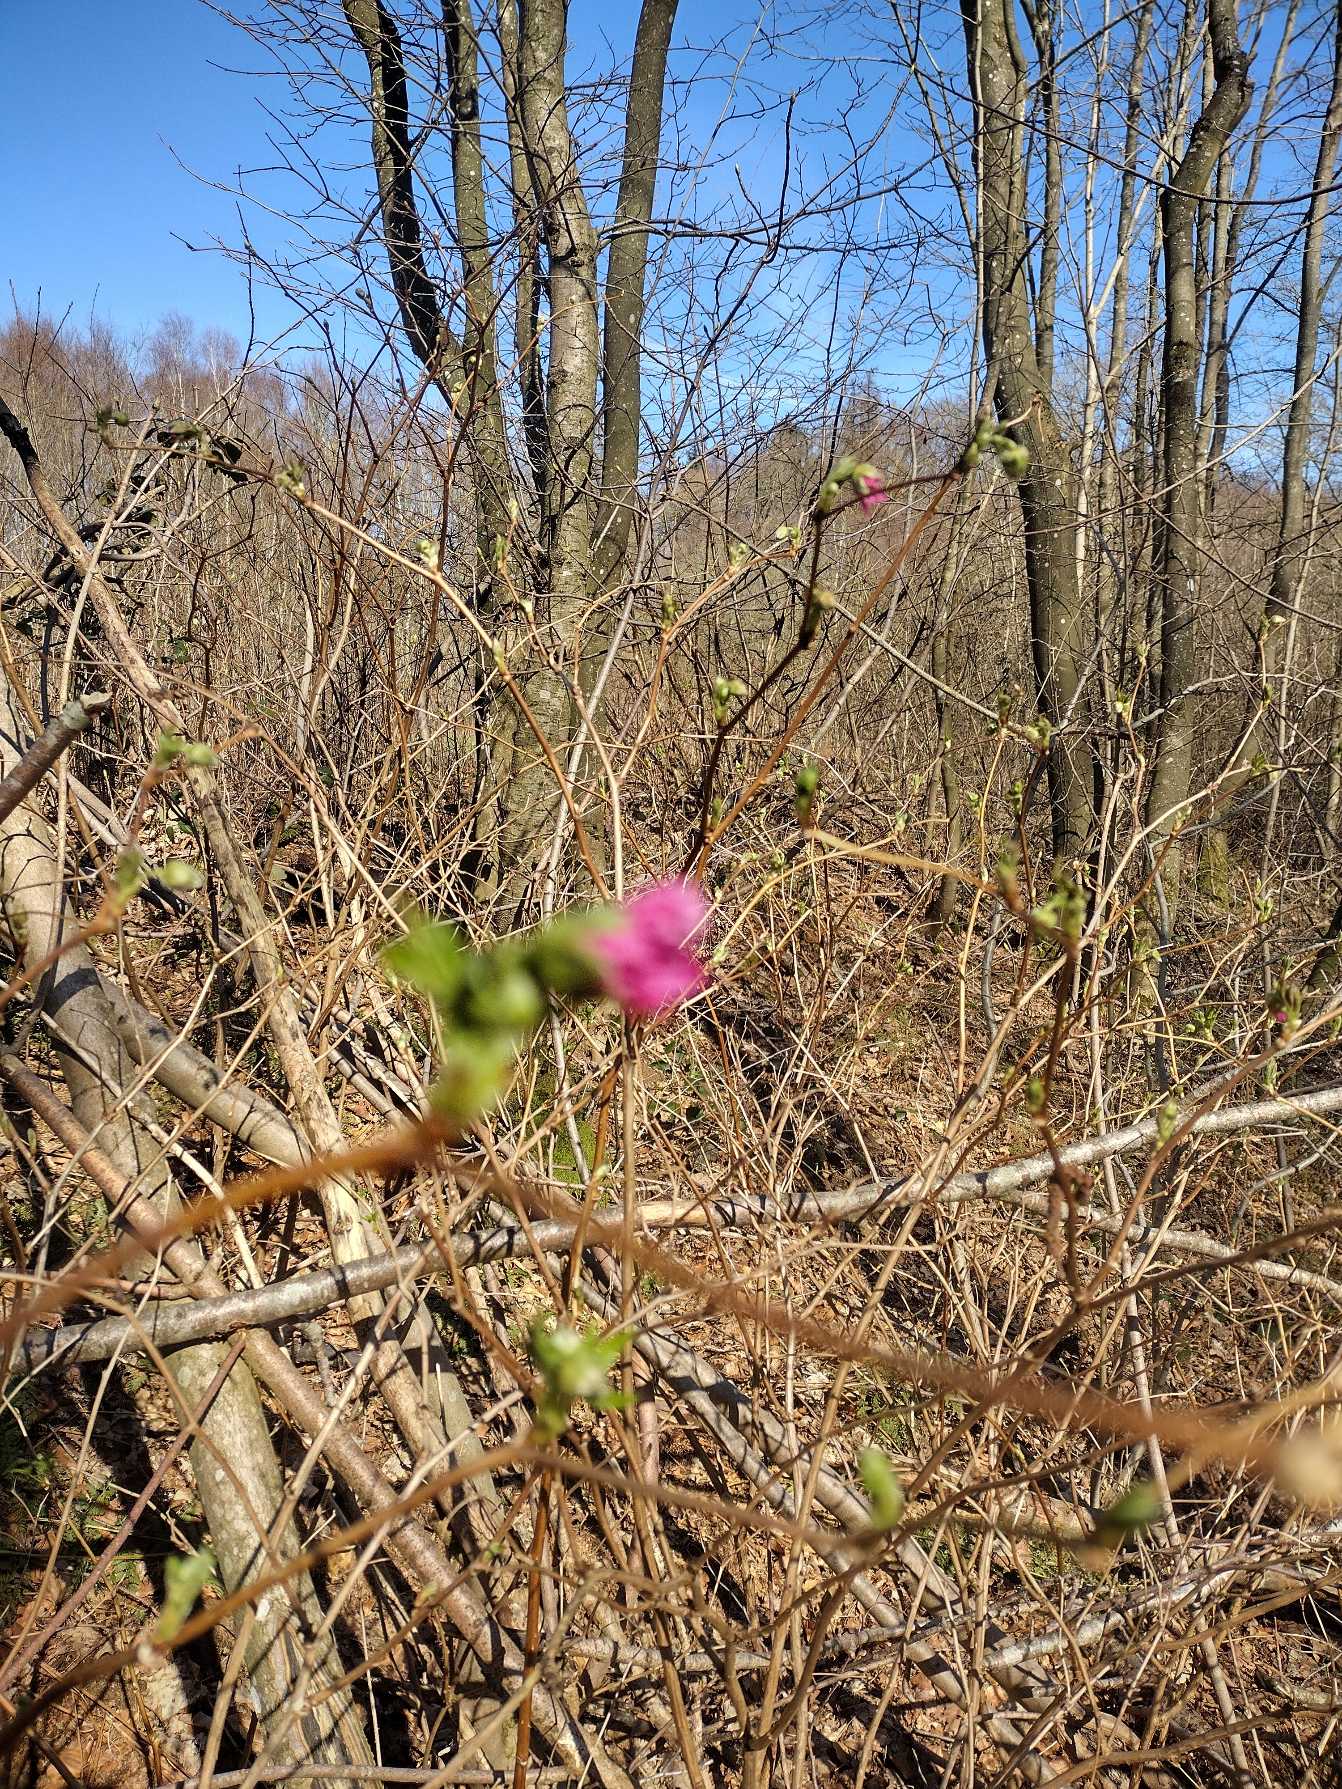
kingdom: Plantae
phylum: Tracheophyta
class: Magnoliopsida
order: Rosales
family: Rosaceae
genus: Rubus
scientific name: Rubus spectabilis
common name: Laksebær
